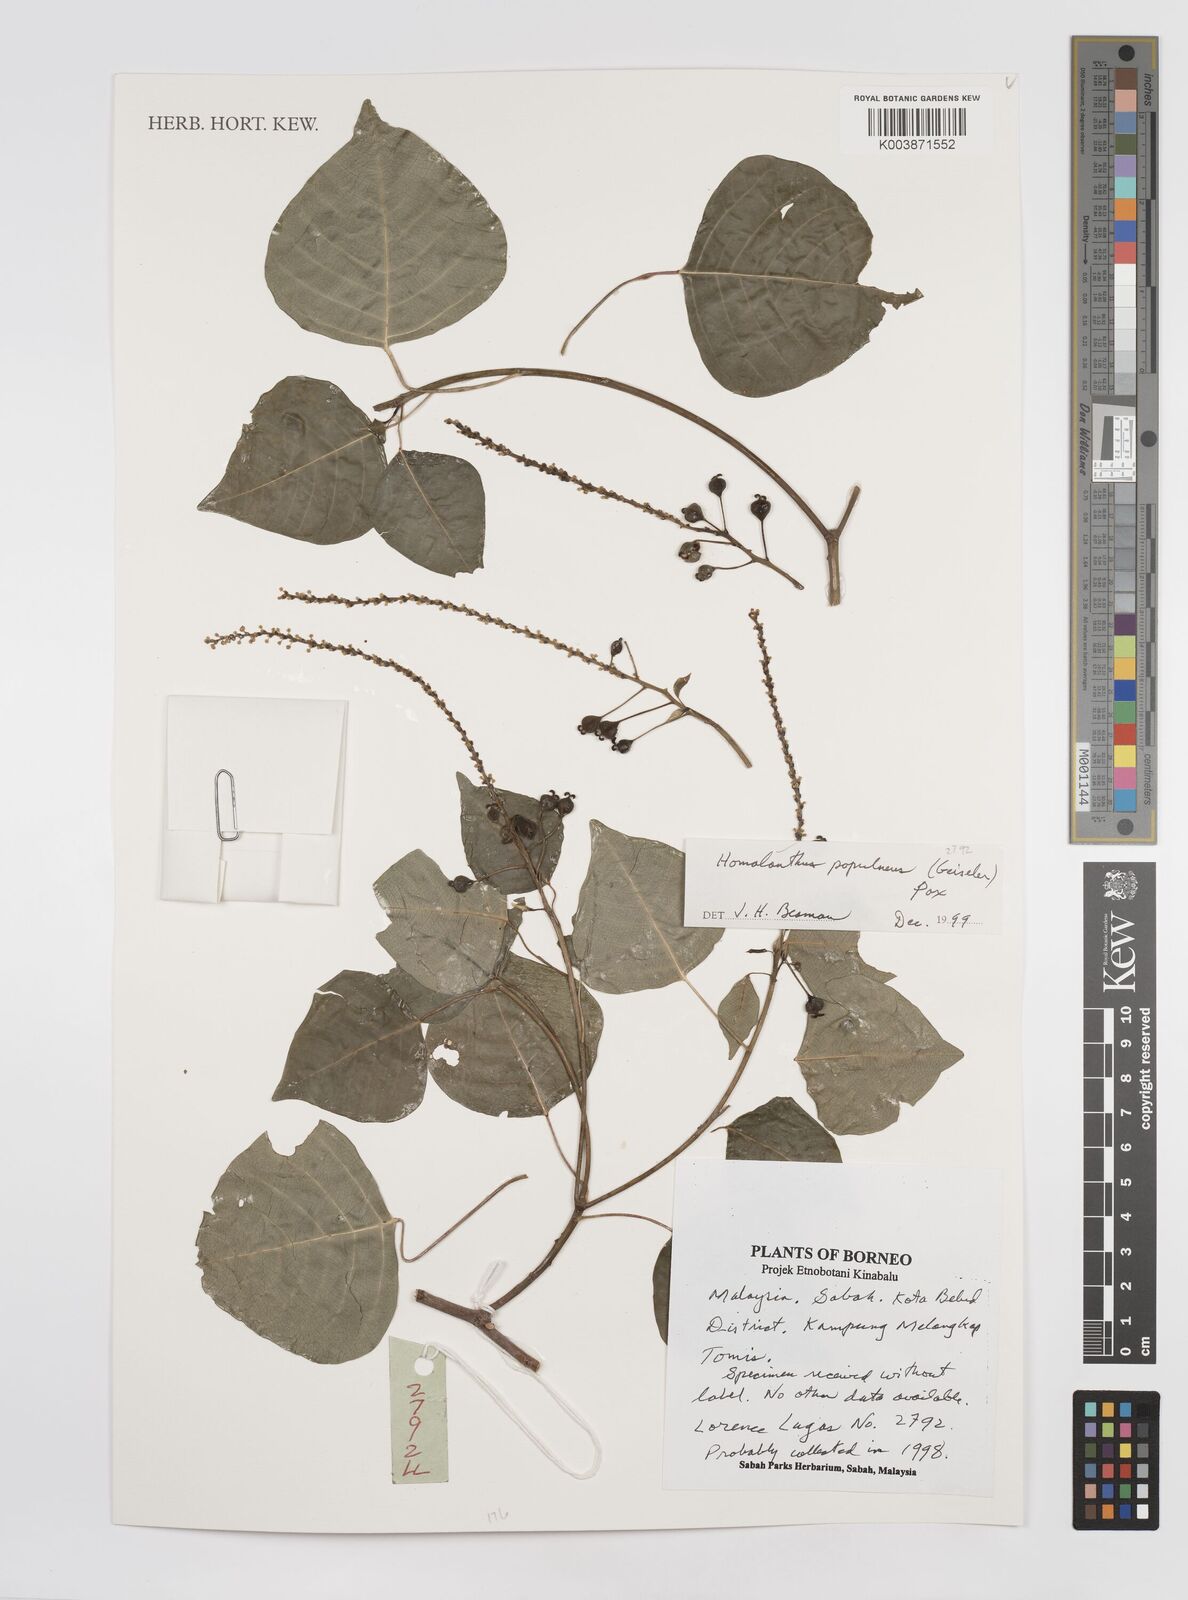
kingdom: Plantae
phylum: Tracheophyta
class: Magnoliopsida
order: Malpighiales
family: Euphorbiaceae
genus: Homalanthus
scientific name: Homalanthus populneus
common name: Spurge
